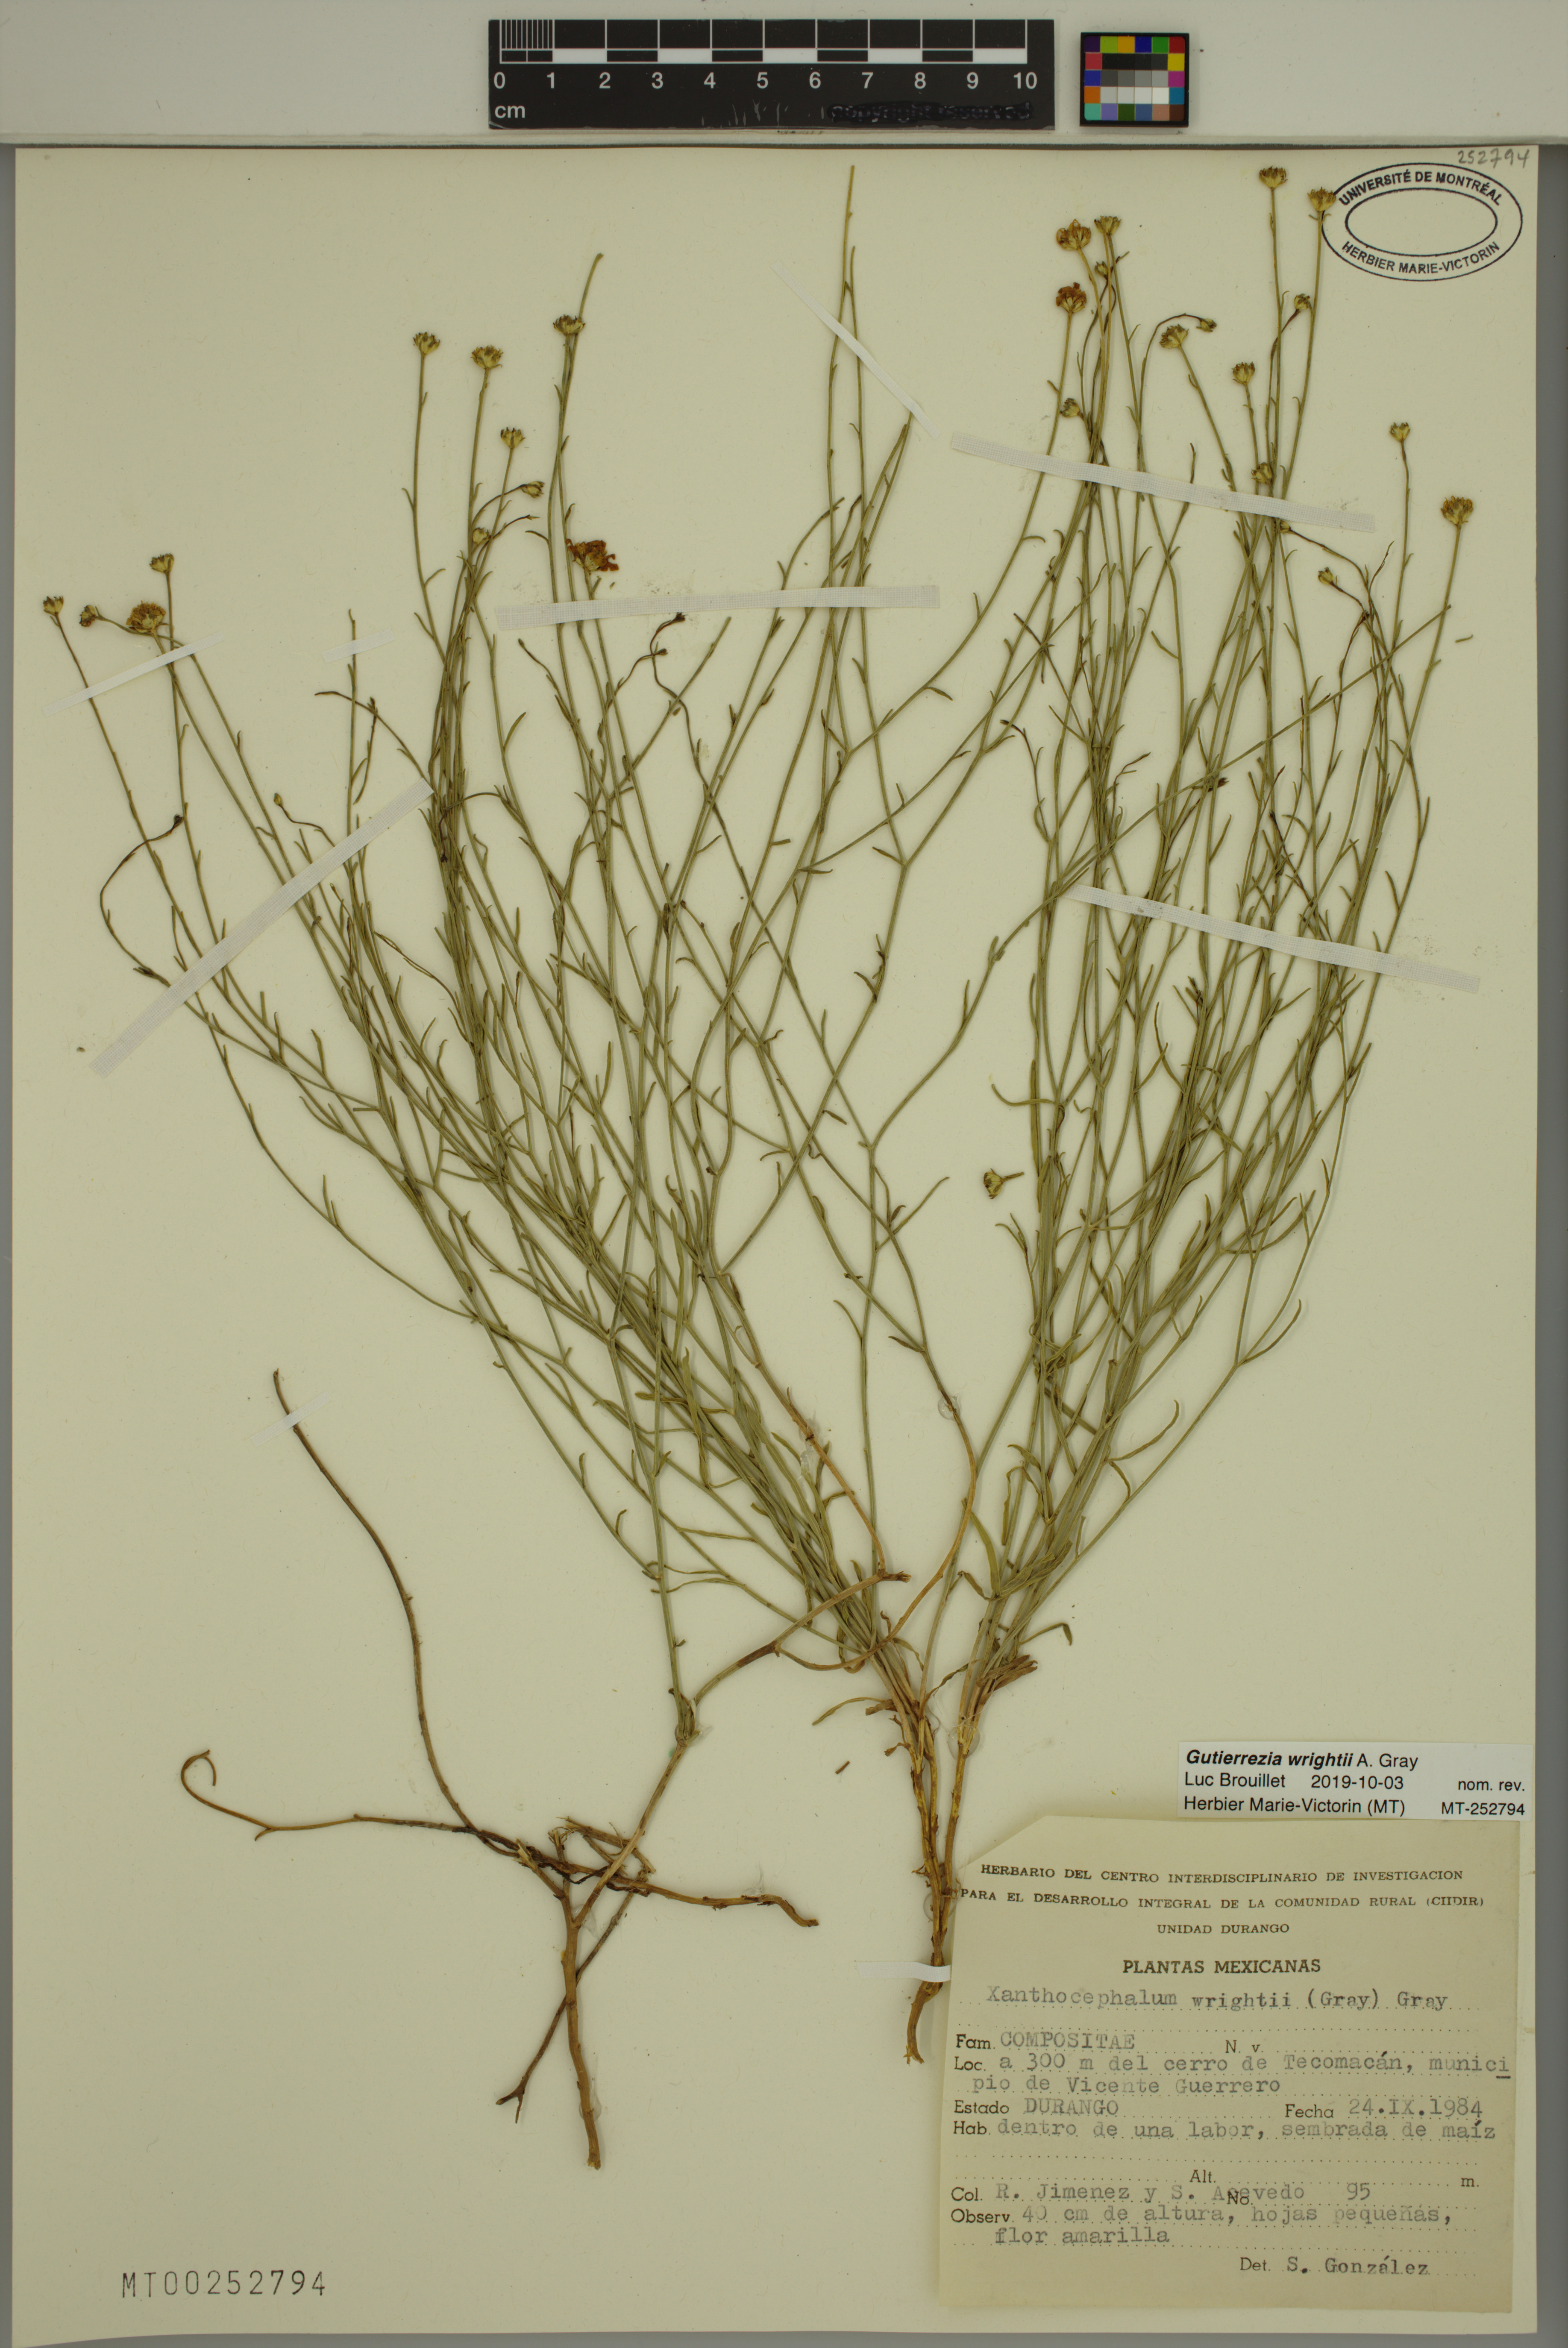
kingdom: Plantae
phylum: Tracheophyta
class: Magnoliopsida
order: Asterales
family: Asteraceae
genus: Gutierrezia
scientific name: Gutierrezia wrightii
